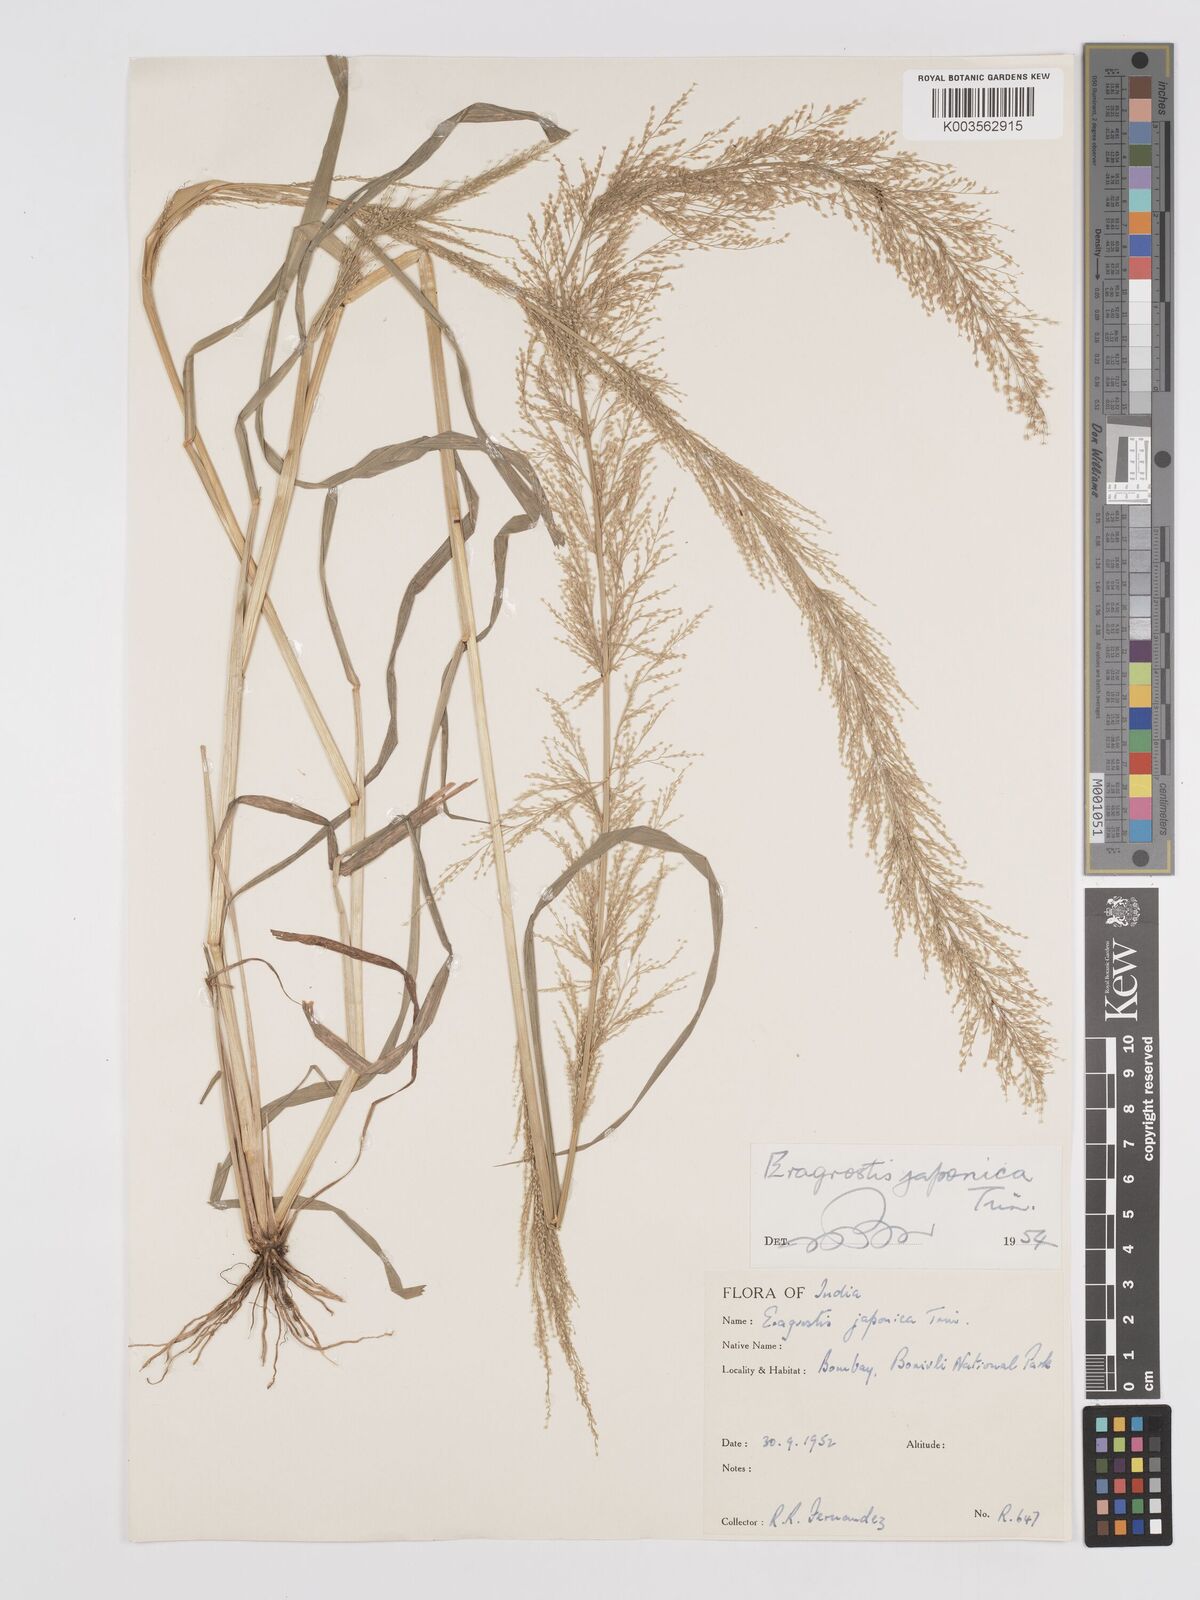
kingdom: Plantae
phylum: Tracheophyta
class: Liliopsida
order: Poales
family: Poaceae
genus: Eragrostis
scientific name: Eragrostis japonica
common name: Pond lovegrass
